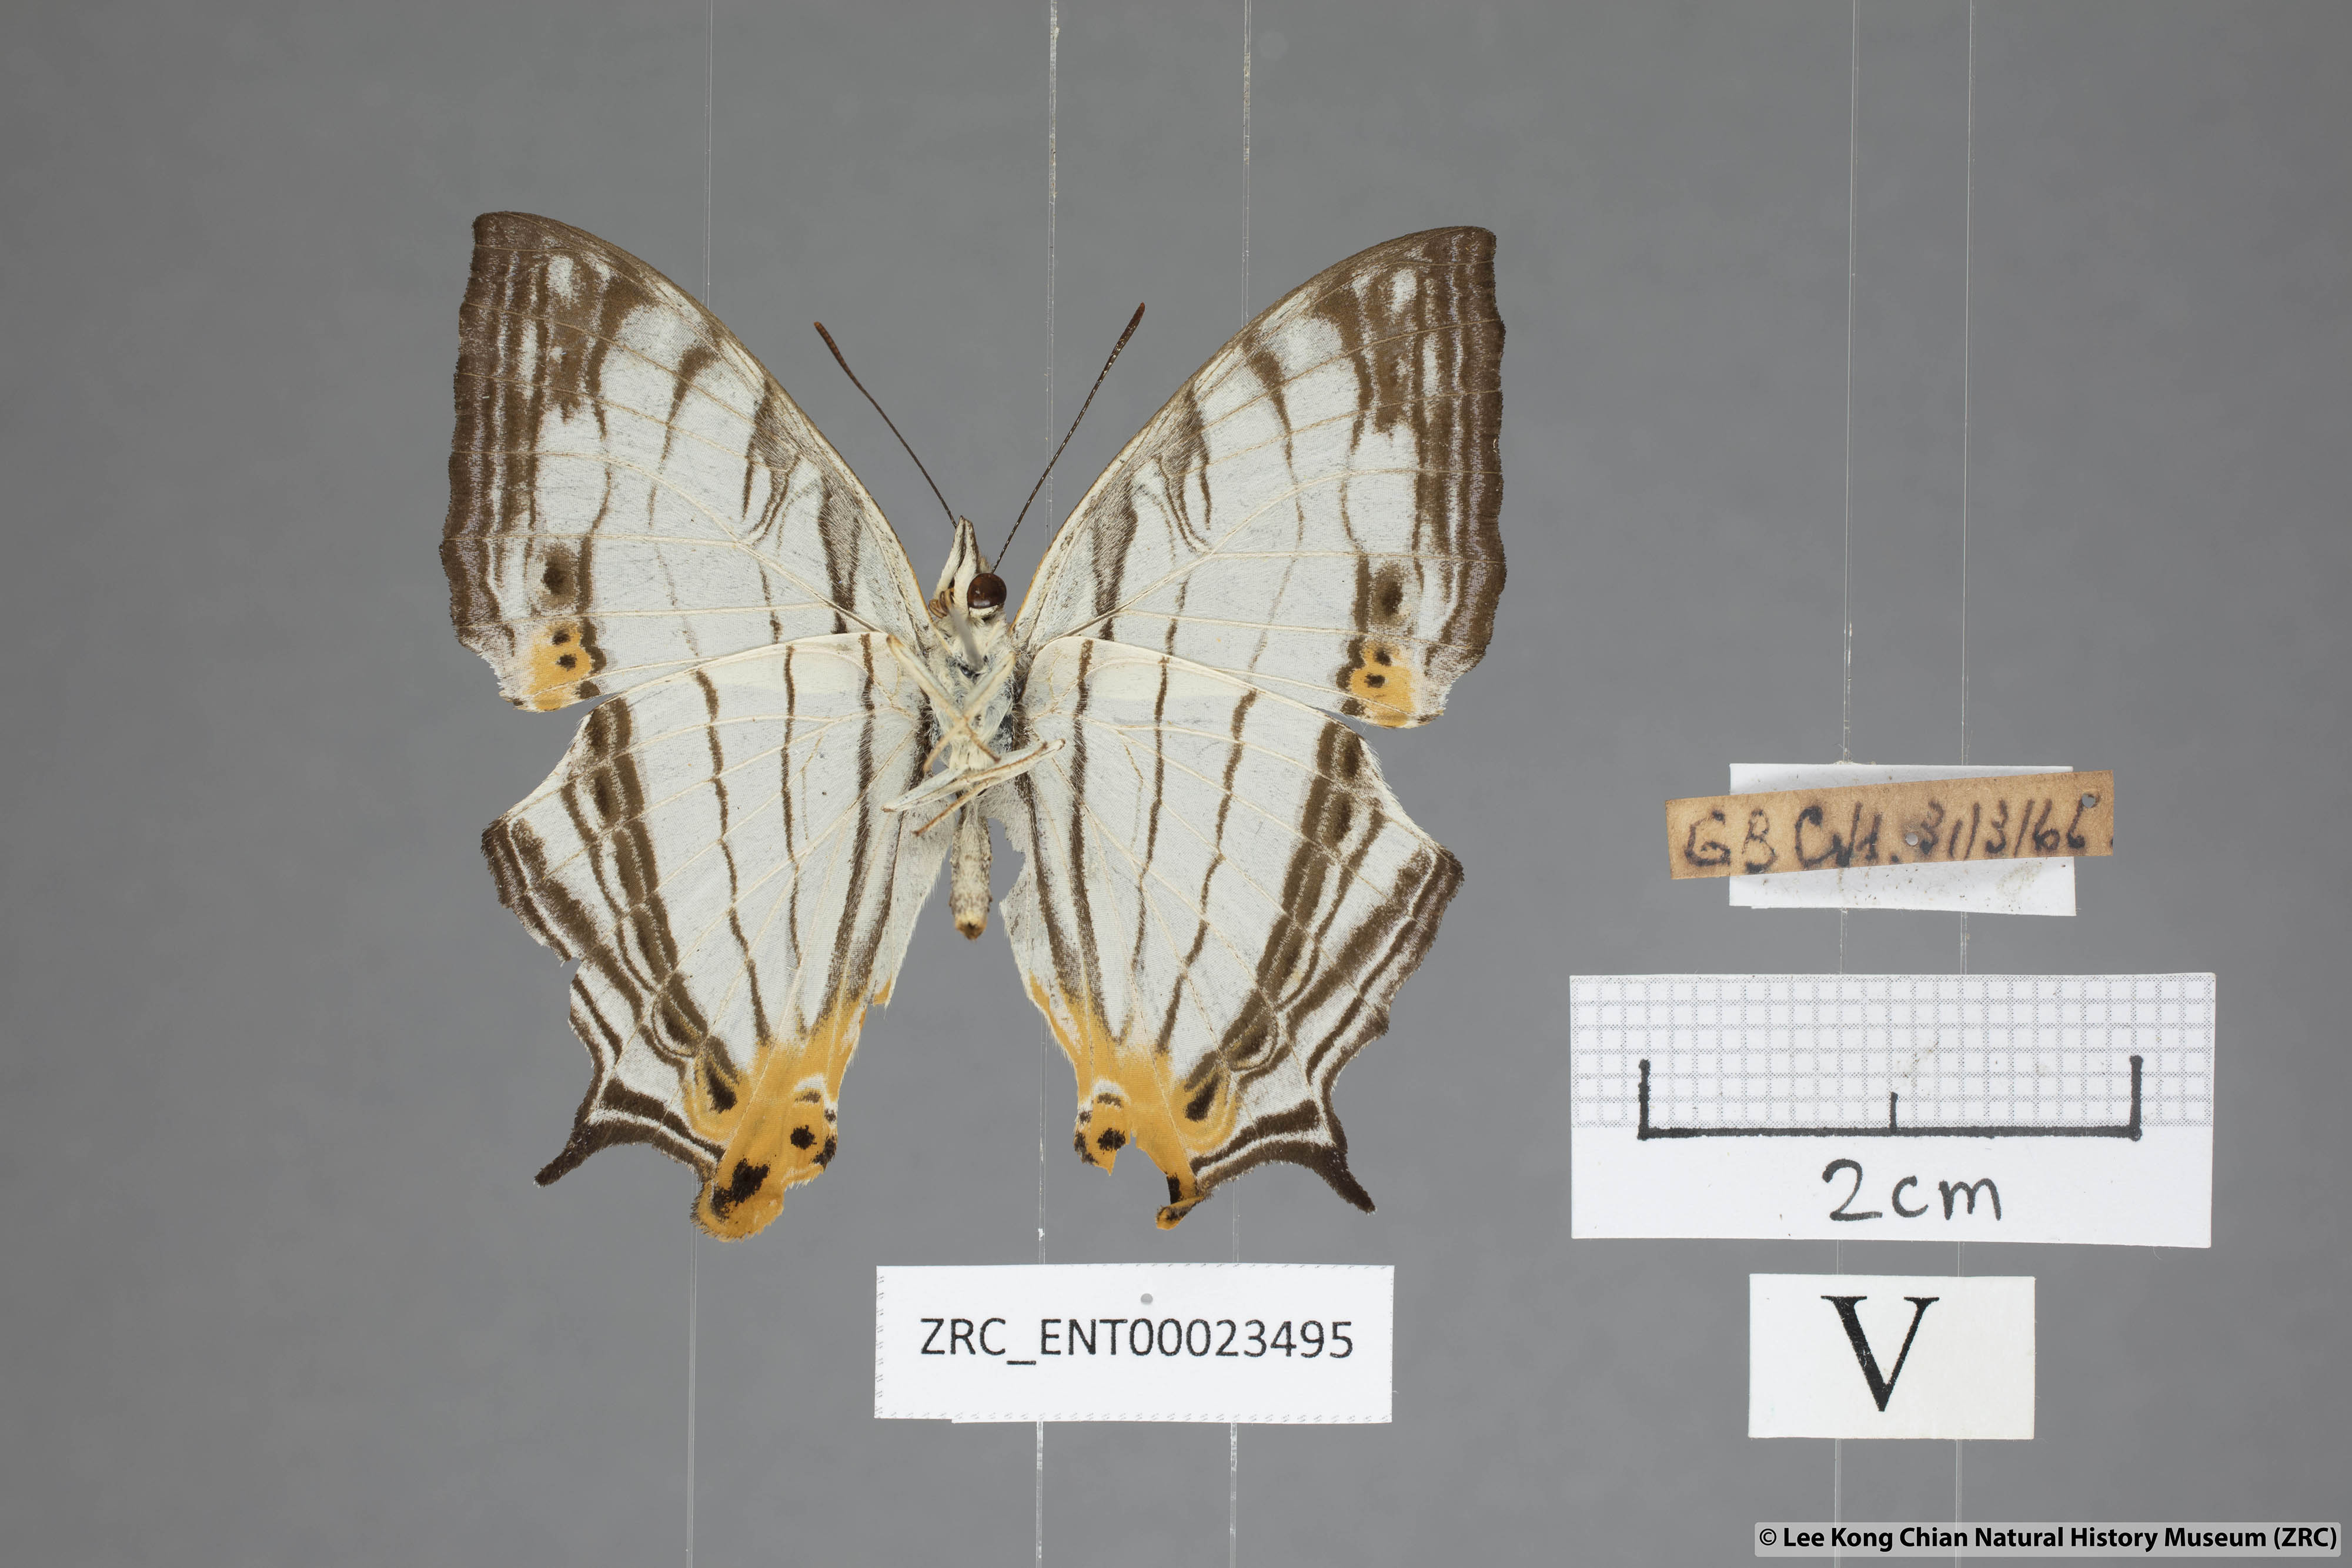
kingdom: Animalia
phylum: Arthropoda
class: Insecta
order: Lepidoptera
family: Nymphalidae
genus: Cyrestis
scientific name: Cyrestis maenalis
